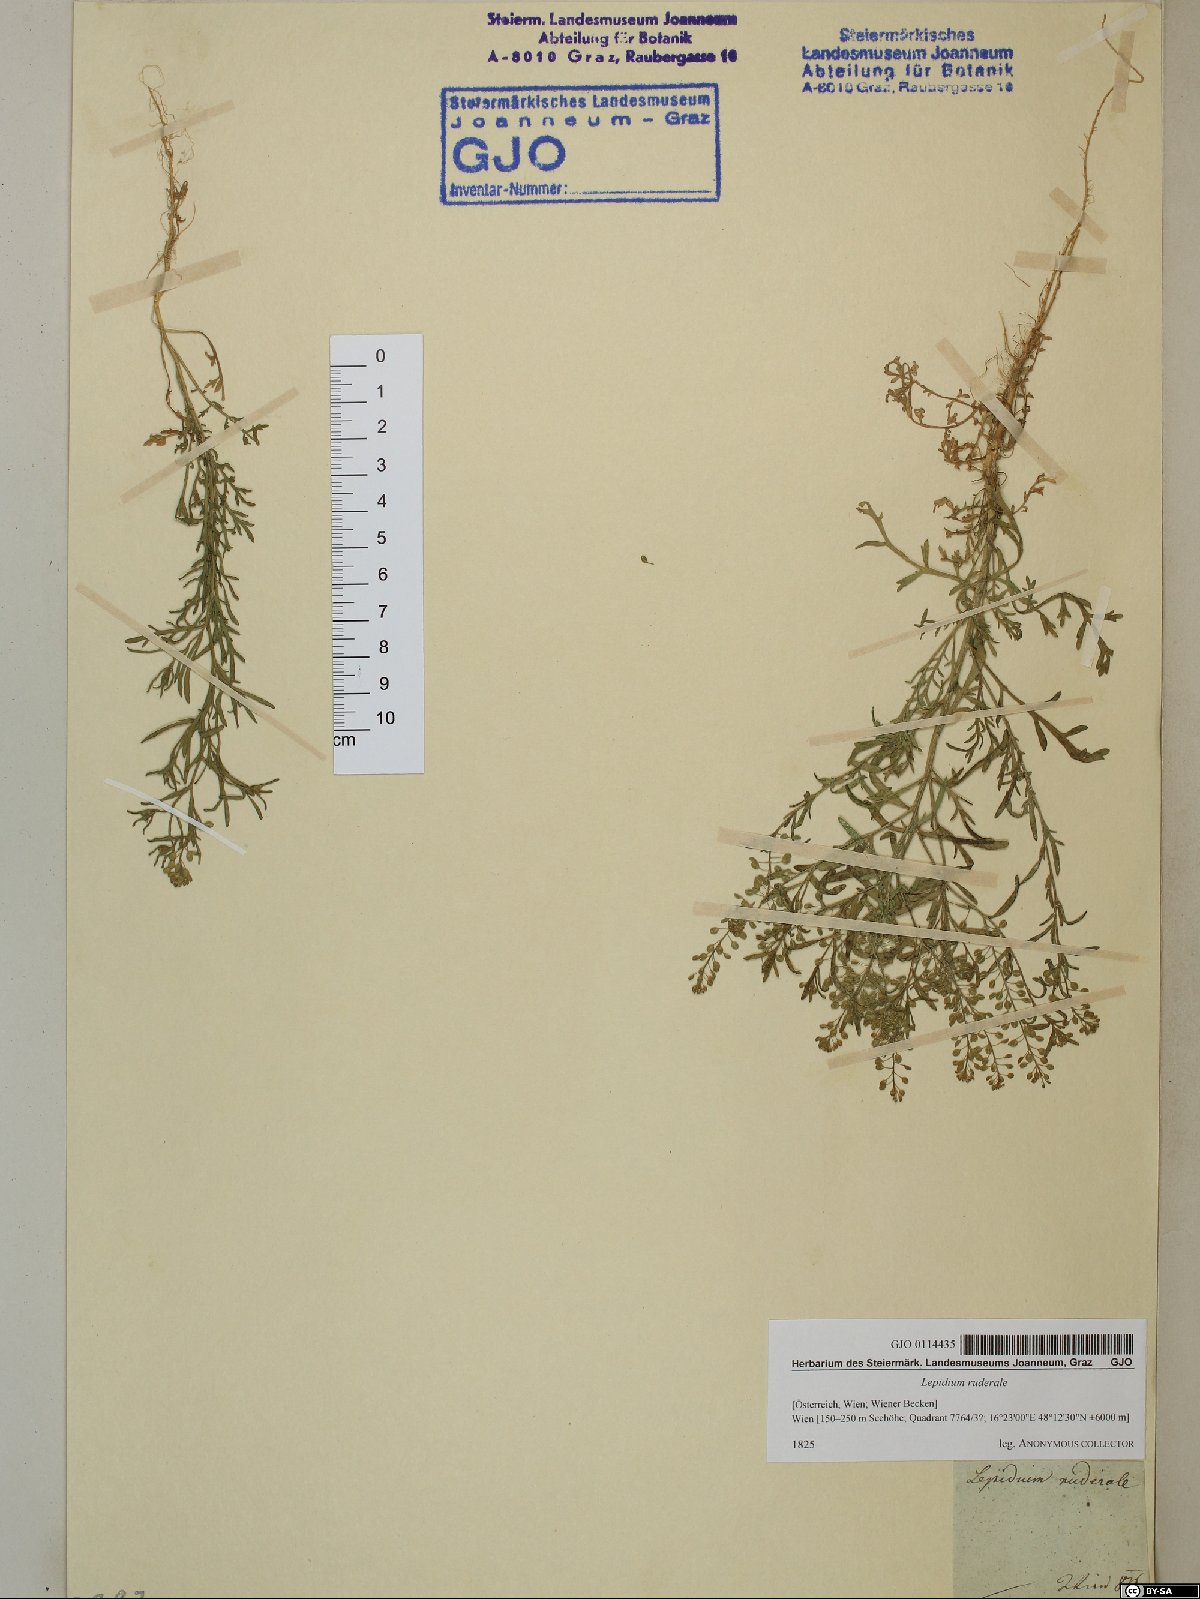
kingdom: Plantae
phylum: Tracheophyta
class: Magnoliopsida
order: Brassicales
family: Brassicaceae
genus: Lepidium
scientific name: Lepidium ruderale
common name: Narrow-leaved pepperwort
